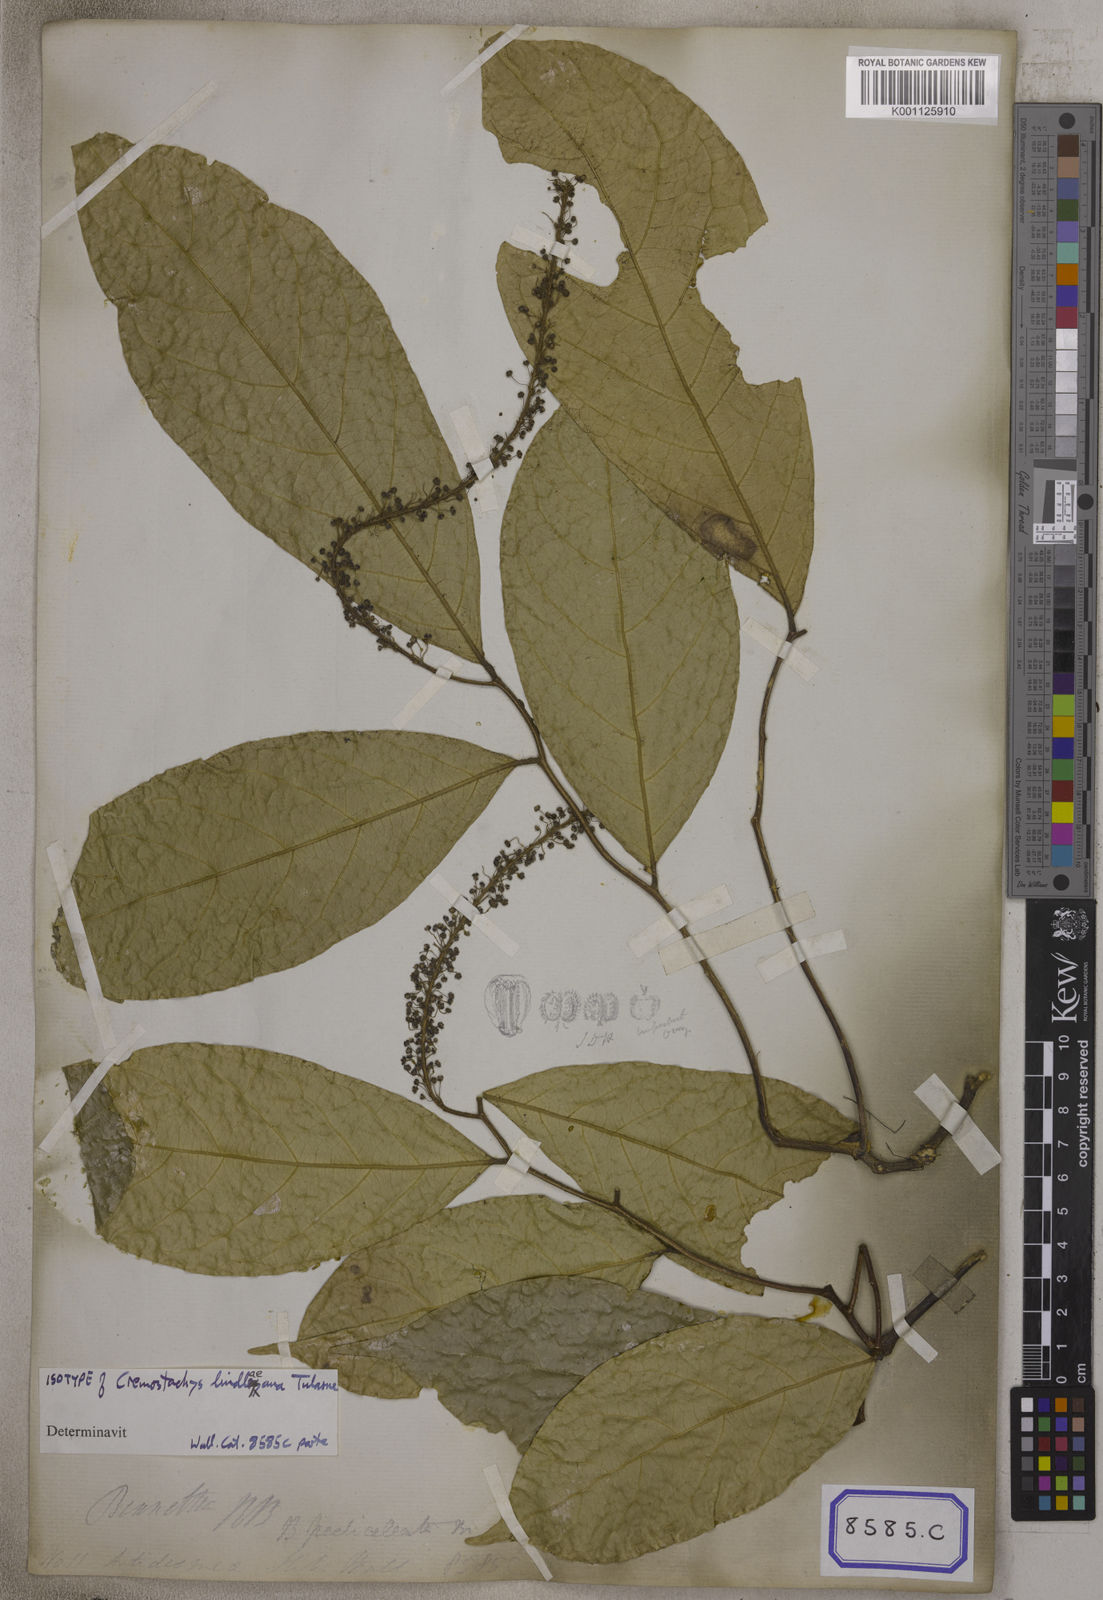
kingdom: Plantae
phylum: Tracheophyta
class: Magnoliopsida
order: Malpighiales
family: Pandaceae
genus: Galearia
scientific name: Galearia
